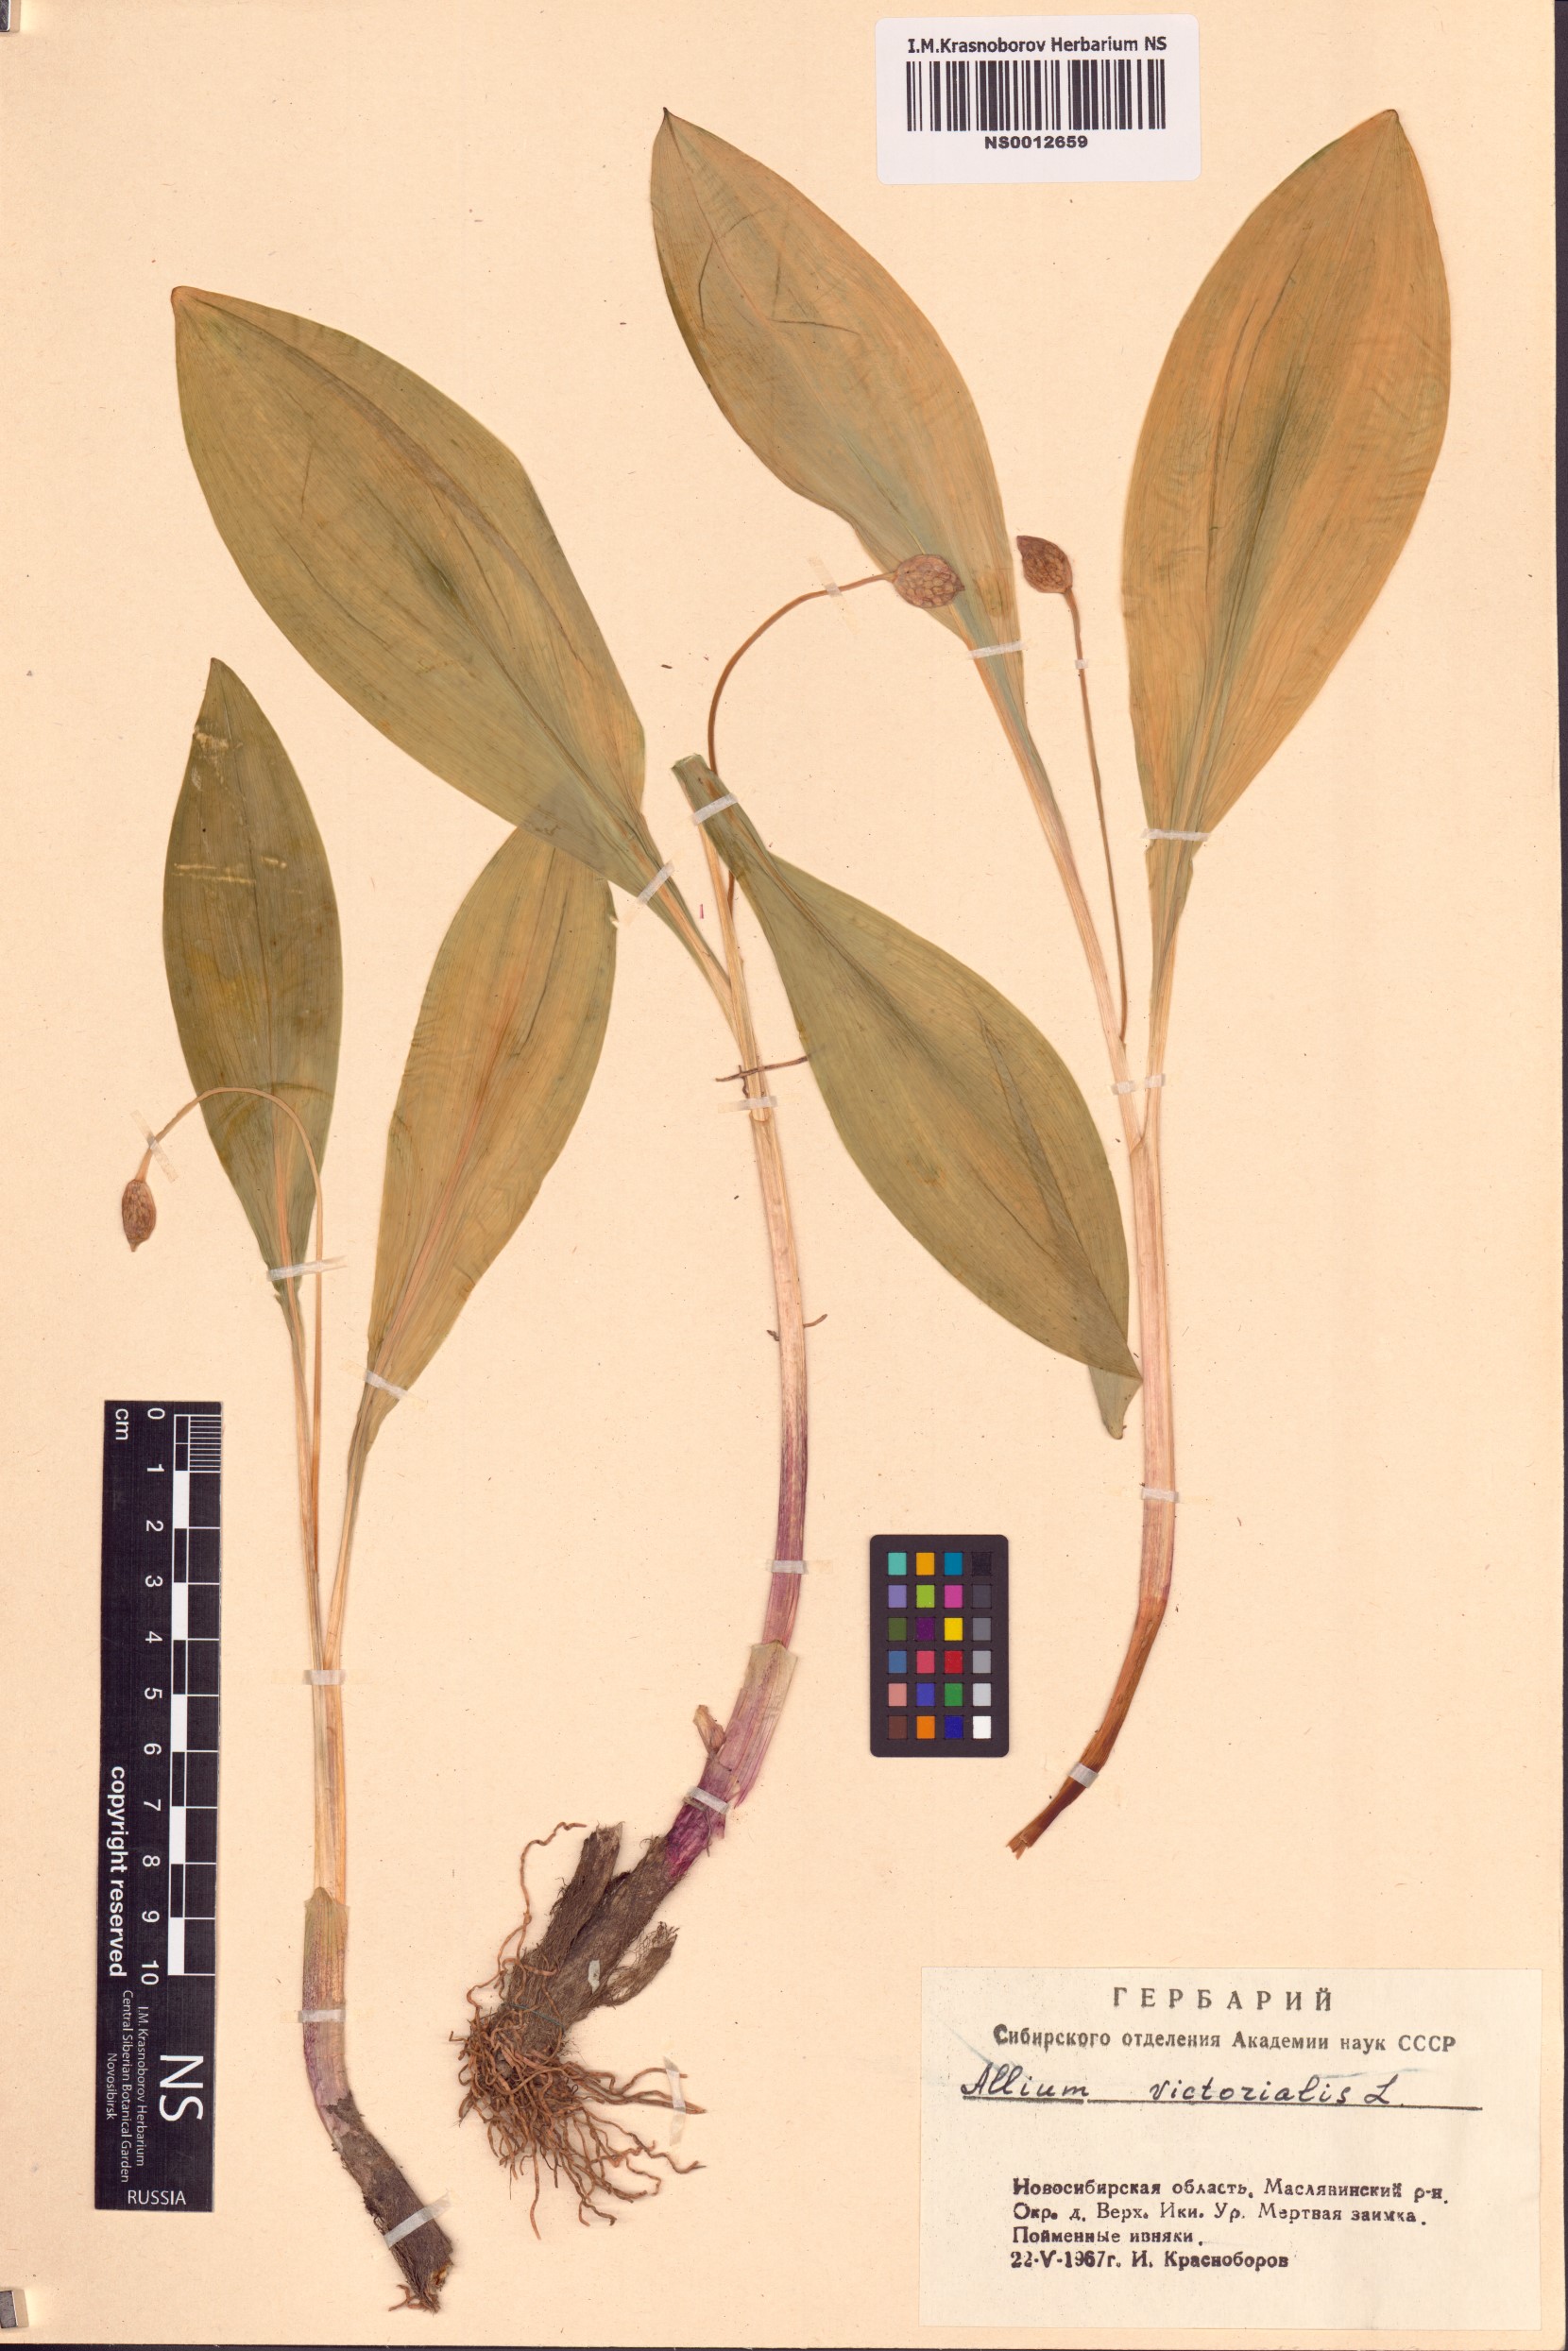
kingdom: Plantae
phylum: Tracheophyta
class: Liliopsida
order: Asparagales
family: Amaryllidaceae
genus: Allium
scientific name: Allium microdictyon
